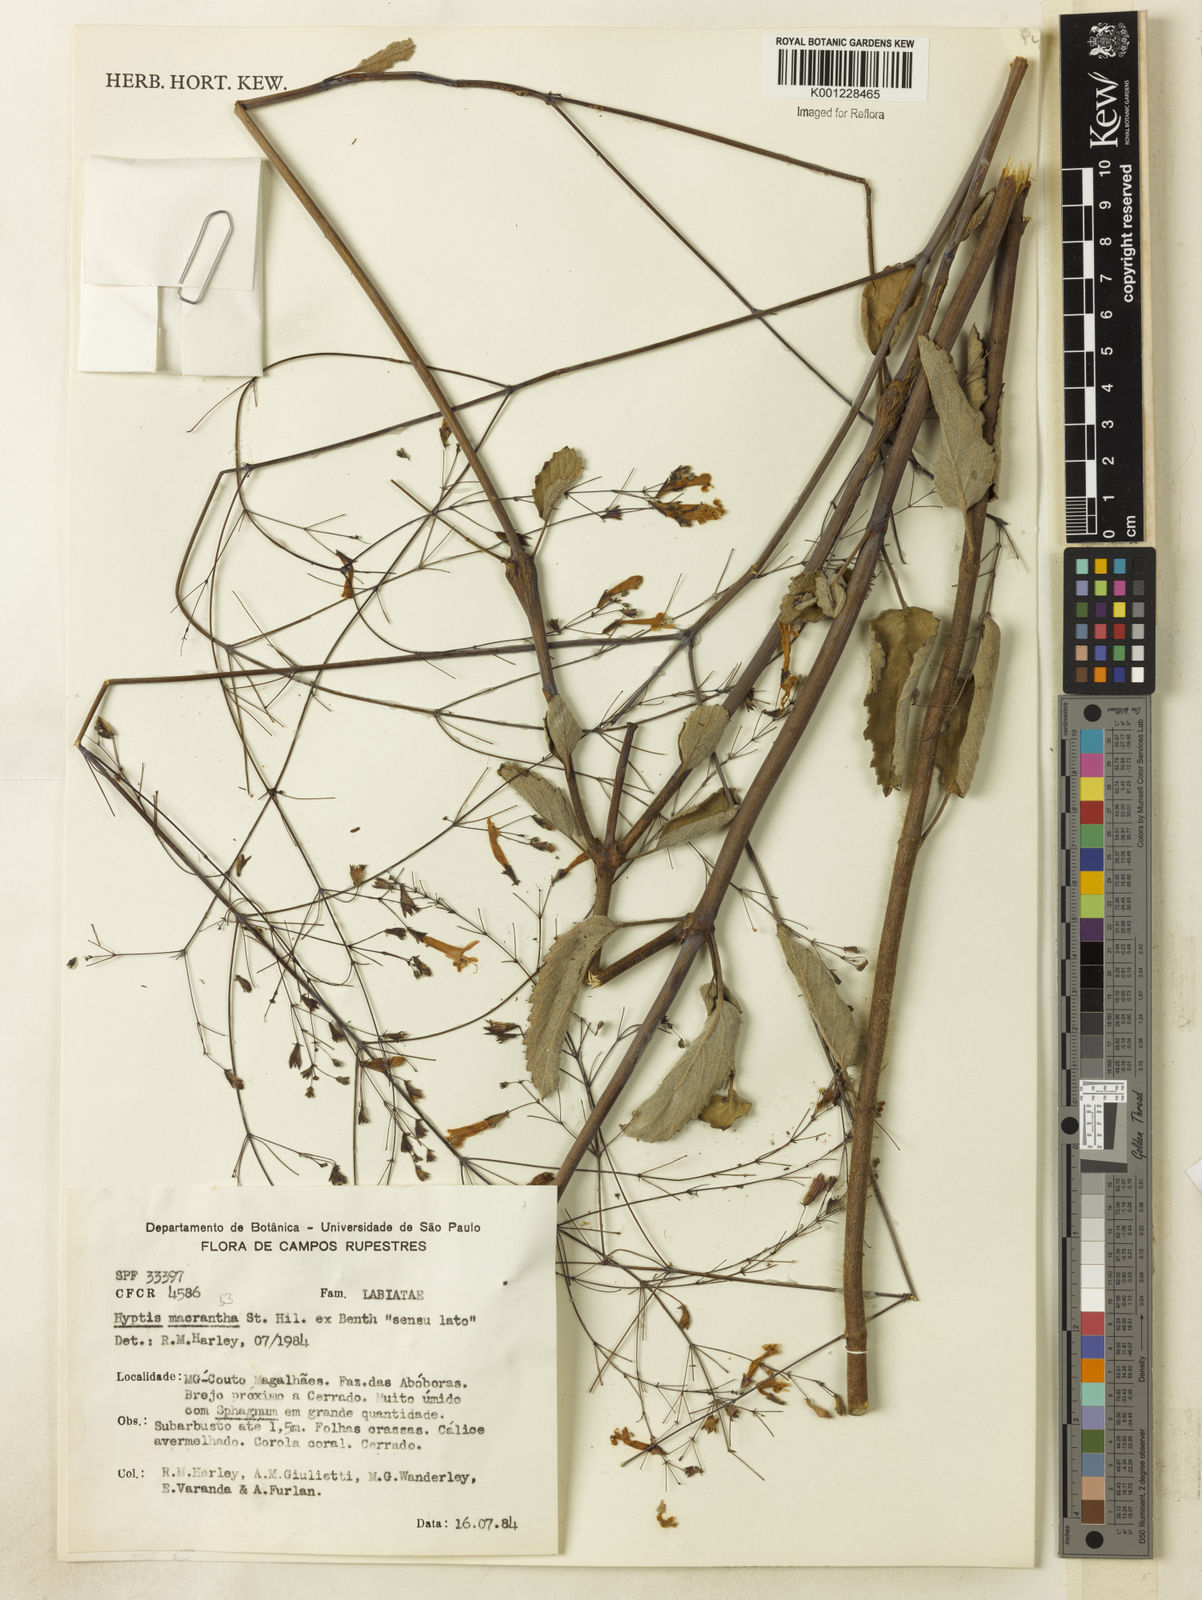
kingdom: Plantae
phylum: Tracheophyta
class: Magnoliopsida
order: Lamiales
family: Lamiaceae
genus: Hypenia
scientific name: Hypenia reticulata
